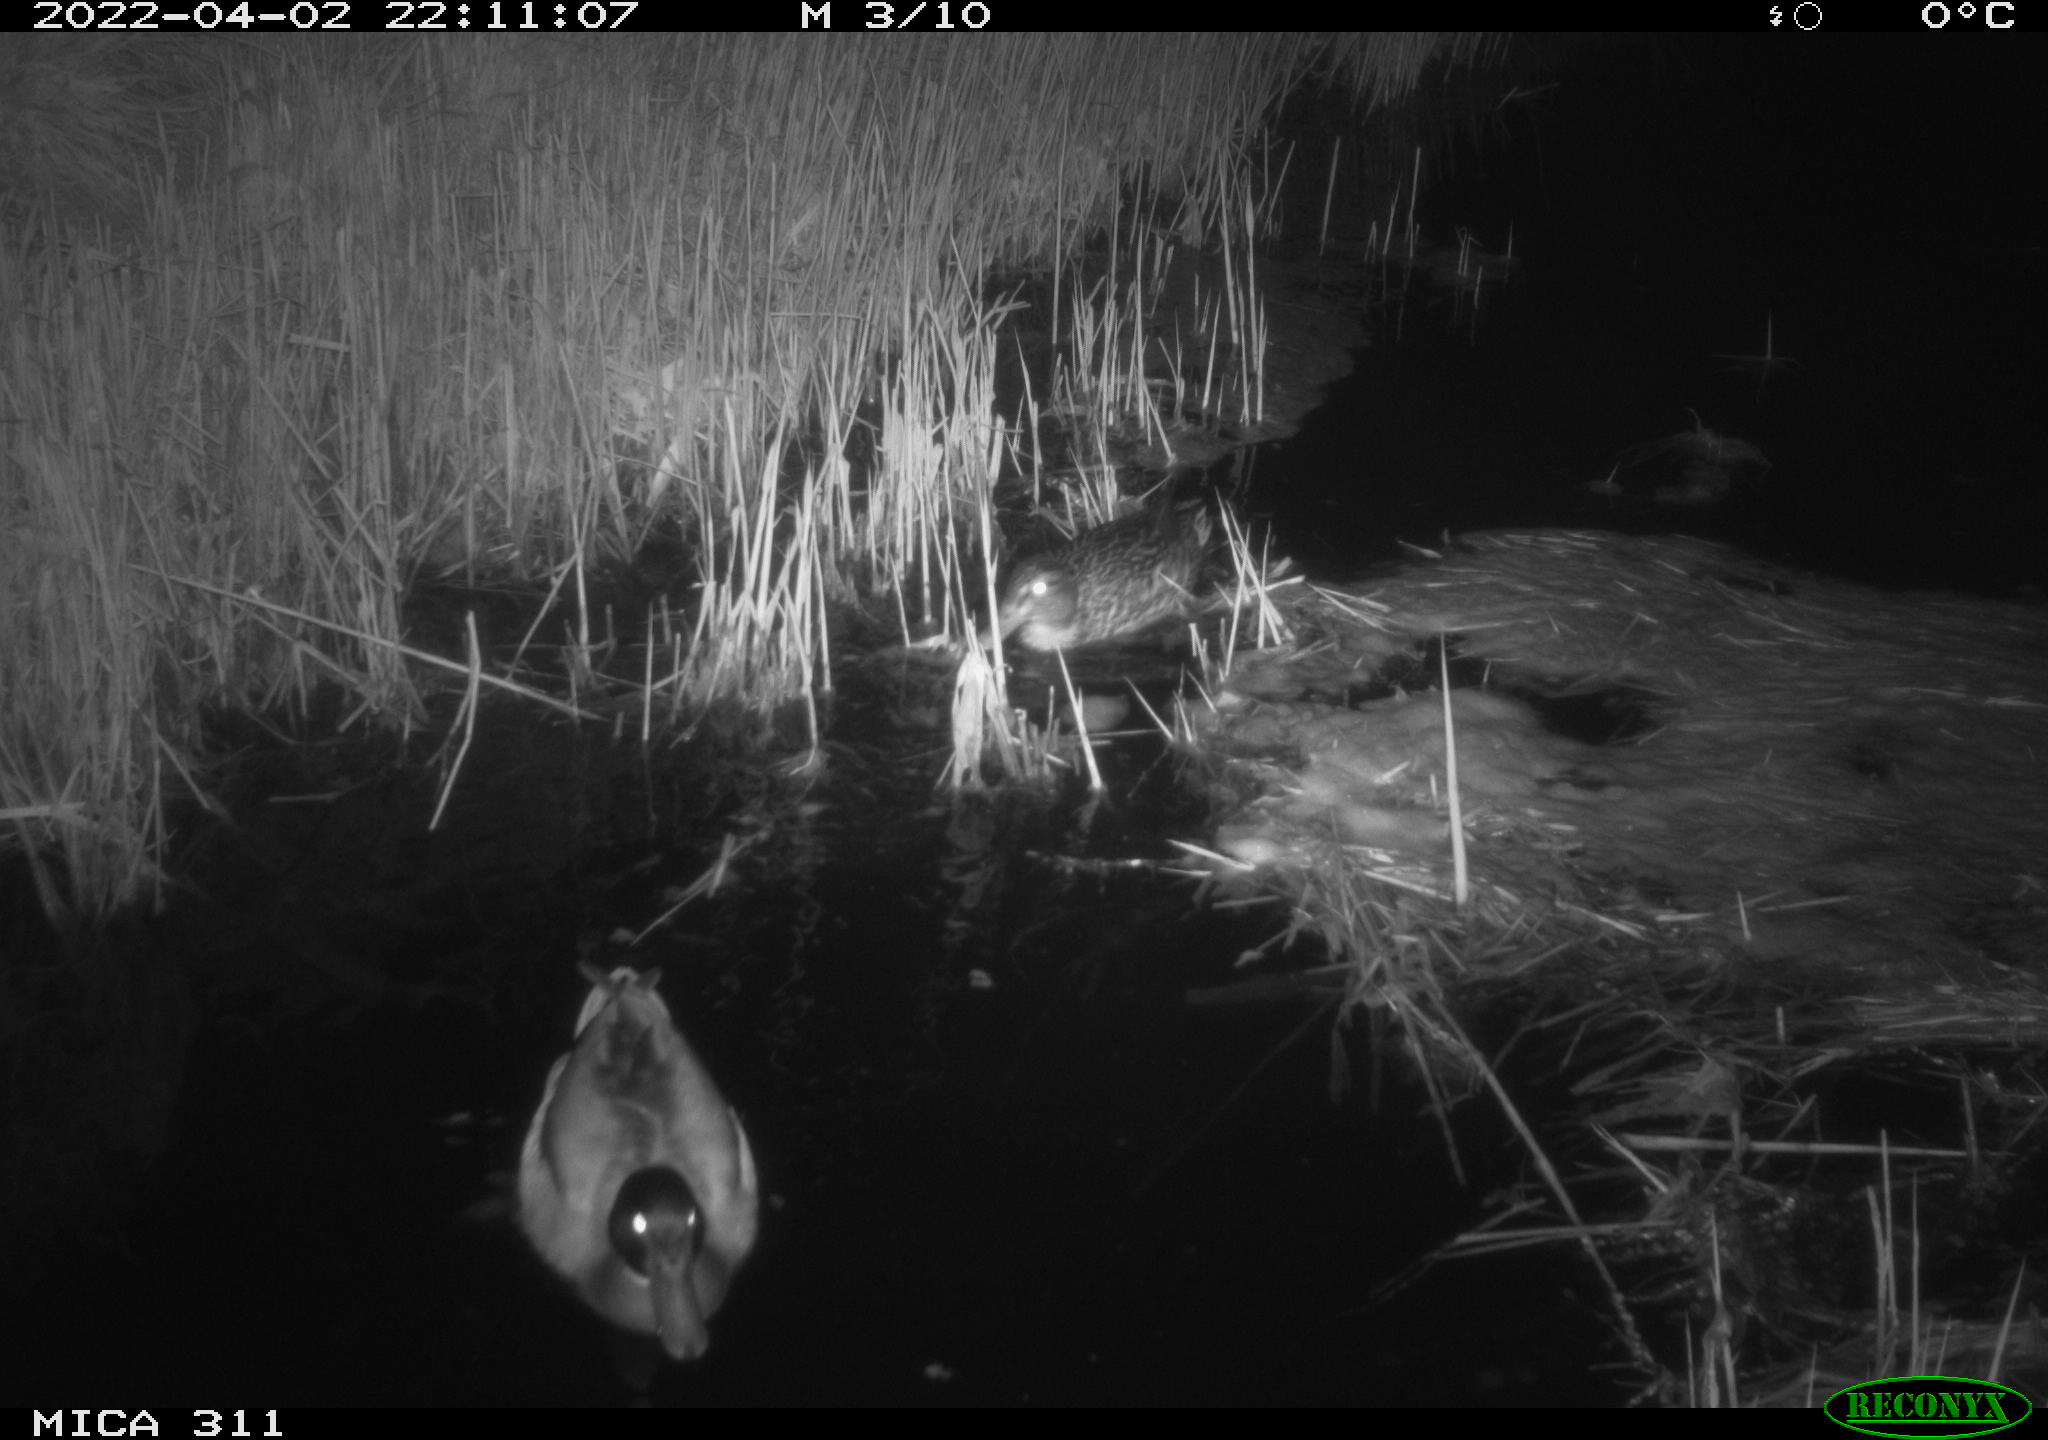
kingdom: Animalia
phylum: Chordata
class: Aves
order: Anseriformes
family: Anatidae
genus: Anas
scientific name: Anas platyrhynchos
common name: Mallard
